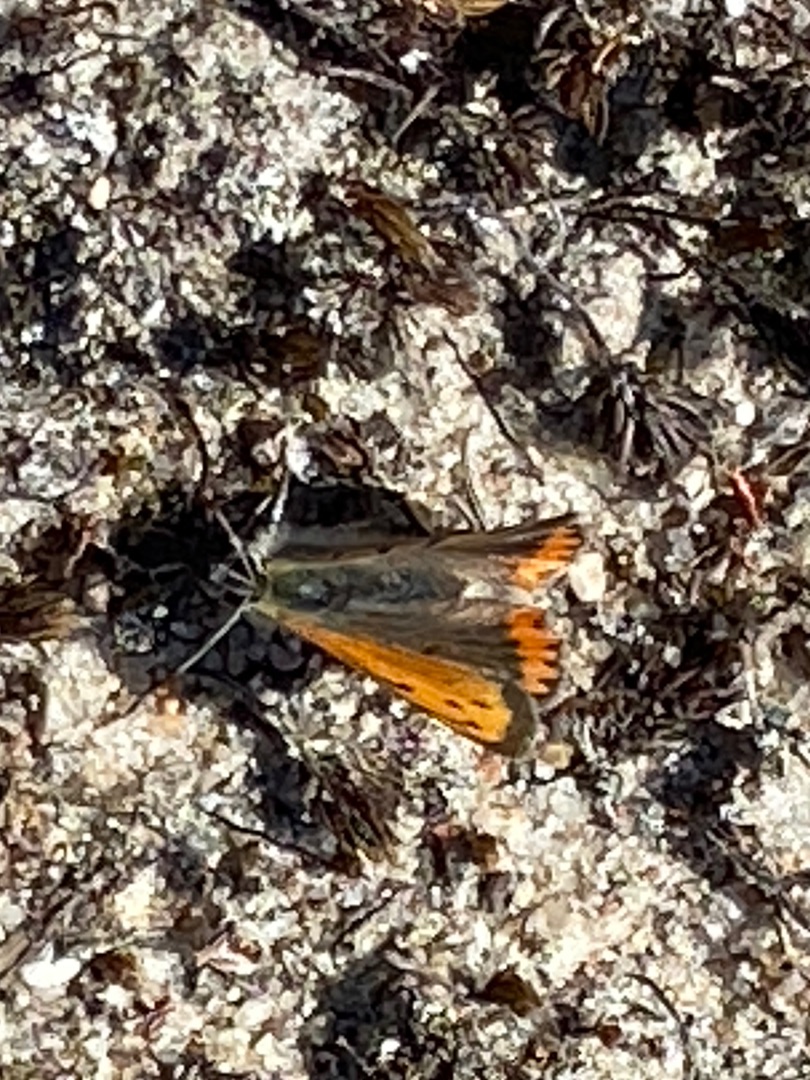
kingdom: Animalia
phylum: Arthropoda
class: Insecta
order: Lepidoptera
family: Lycaenidae
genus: Lycaena
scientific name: Lycaena phlaeas
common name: Lille ildfugl
